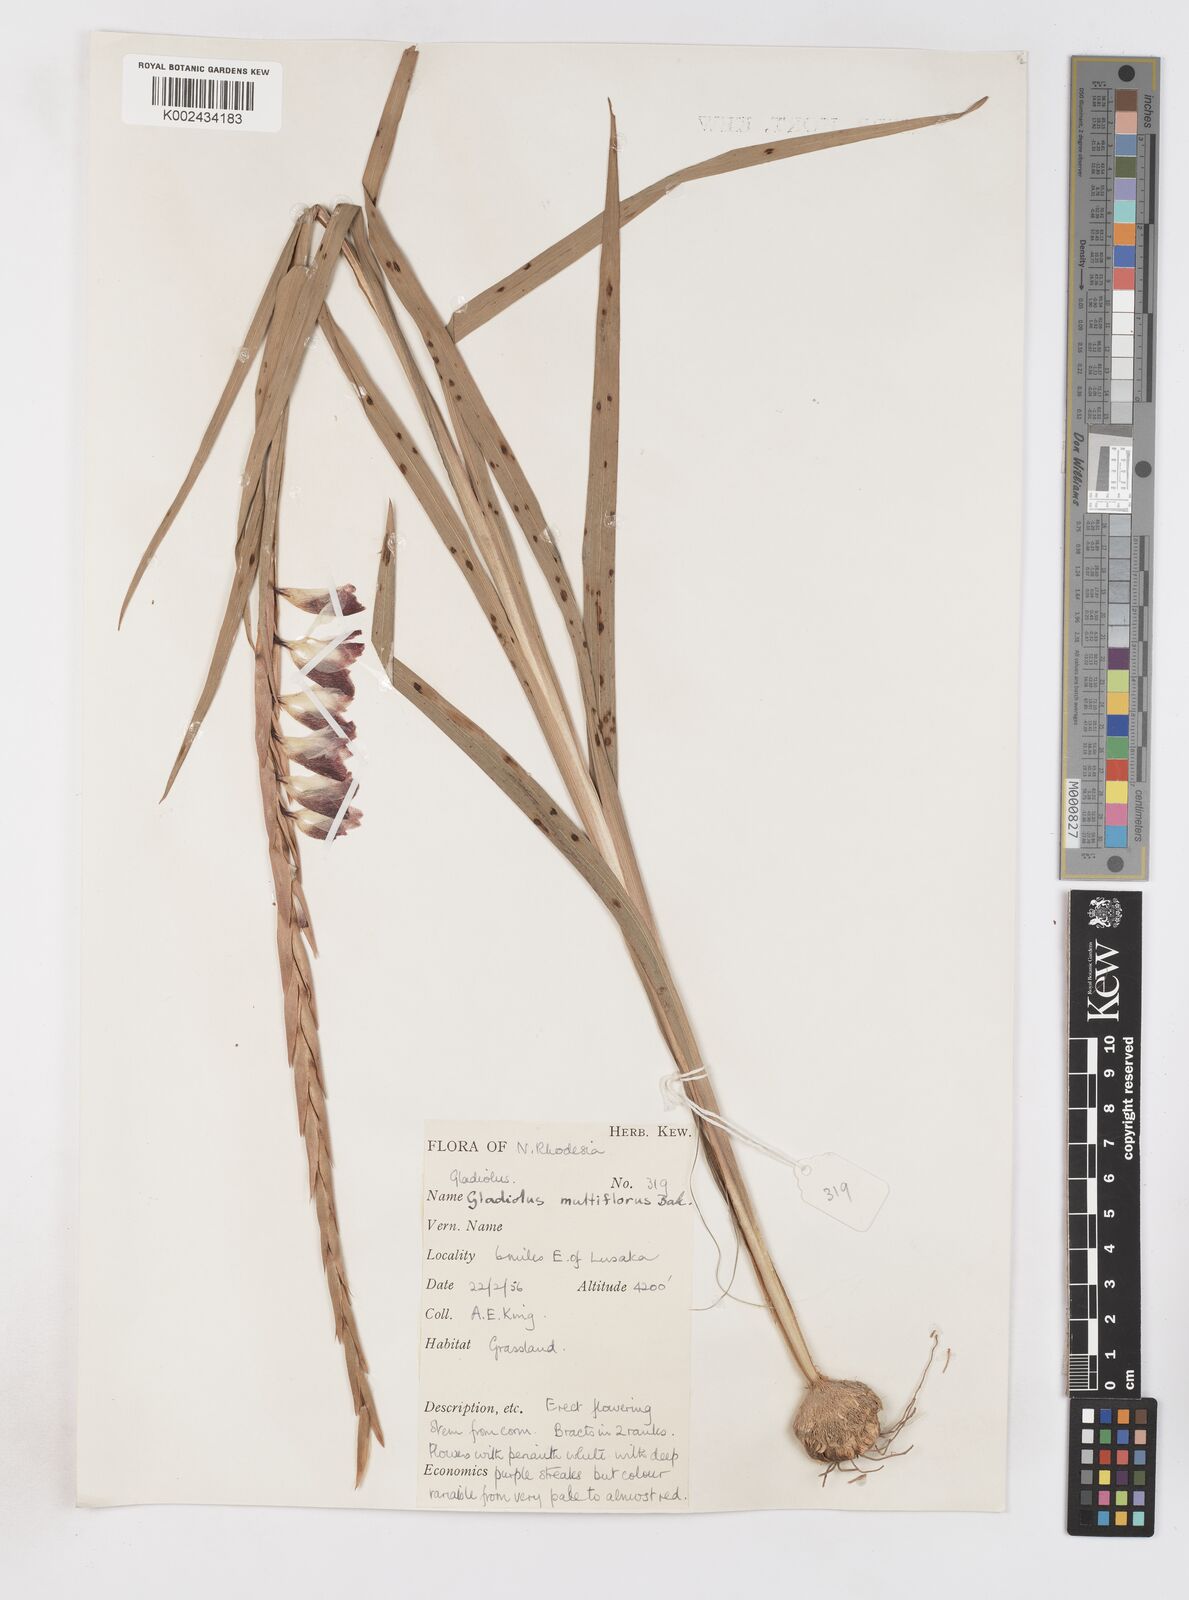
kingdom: Plantae
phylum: Tracheophyta
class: Liliopsida
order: Asparagales
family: Iridaceae
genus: Gladiolus
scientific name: Gladiolus gregarius
